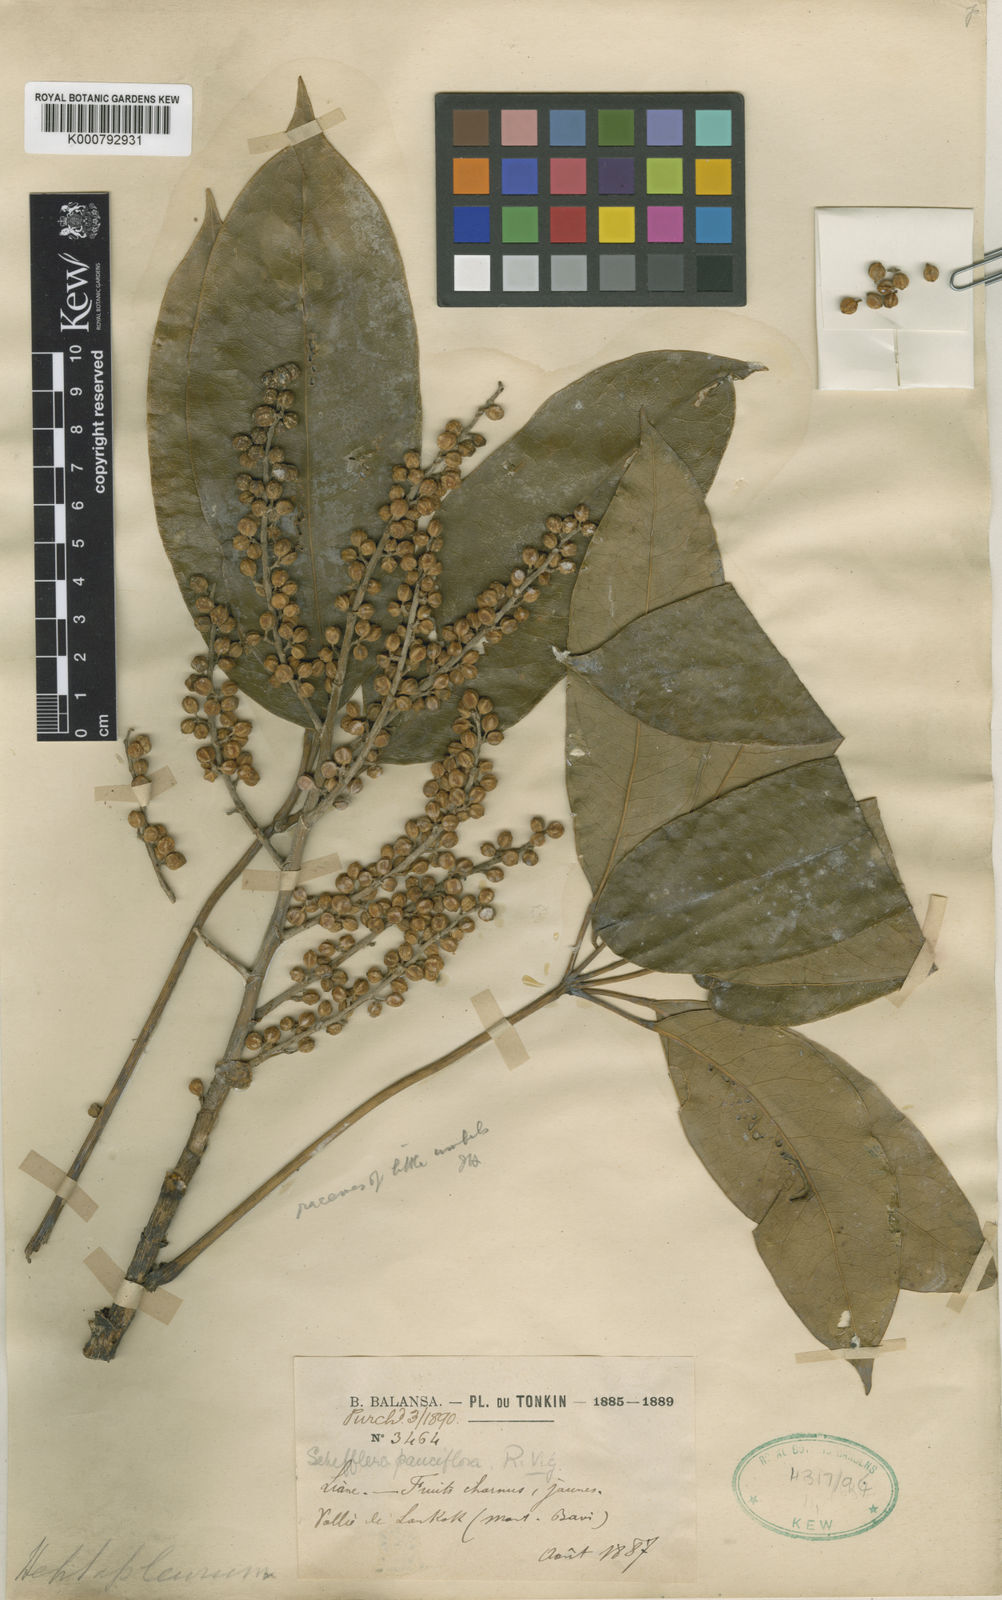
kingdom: Plantae
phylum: Tracheophyta
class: Magnoliopsida
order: Apiales
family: Araliaceae
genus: Heptapleurum
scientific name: Heptapleurum pauciflorum
